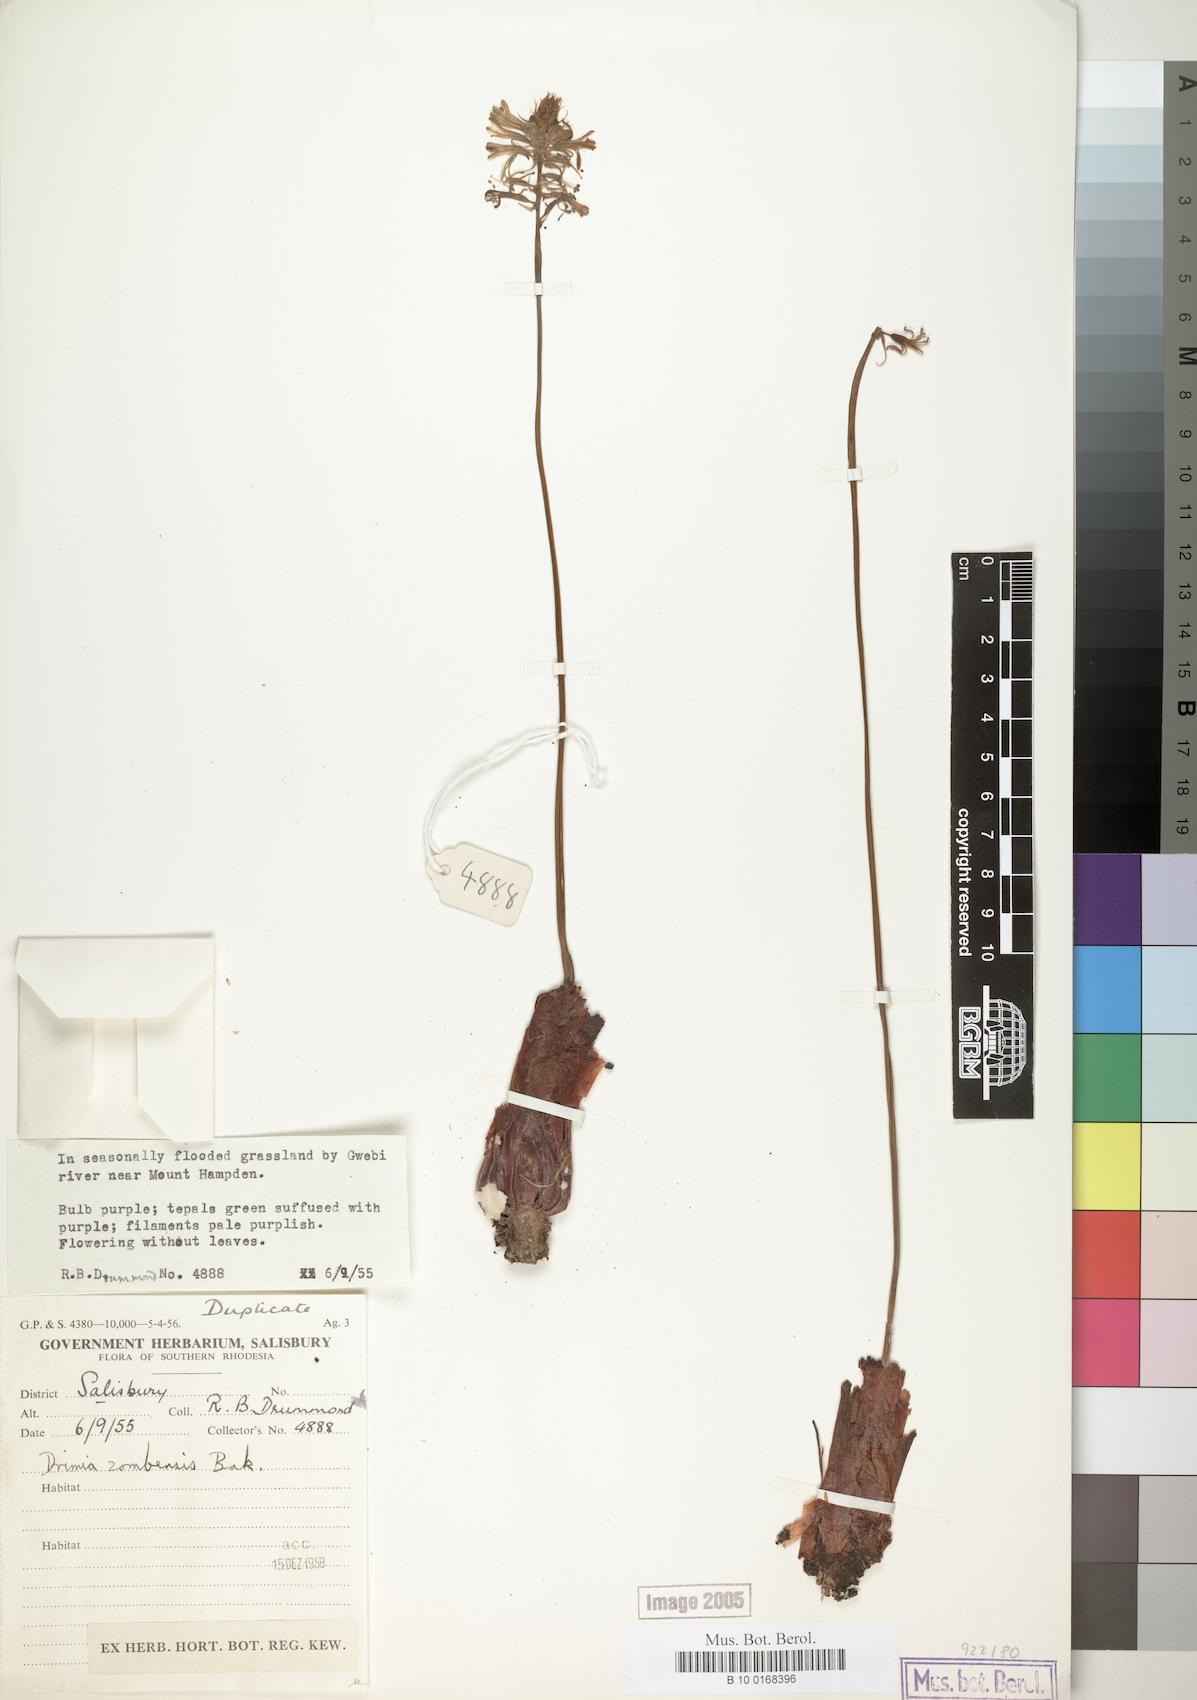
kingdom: Plantae
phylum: Tracheophyta
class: Liliopsida
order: Asparagales
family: Asparagaceae
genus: Drimia
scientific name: Drimia elata
